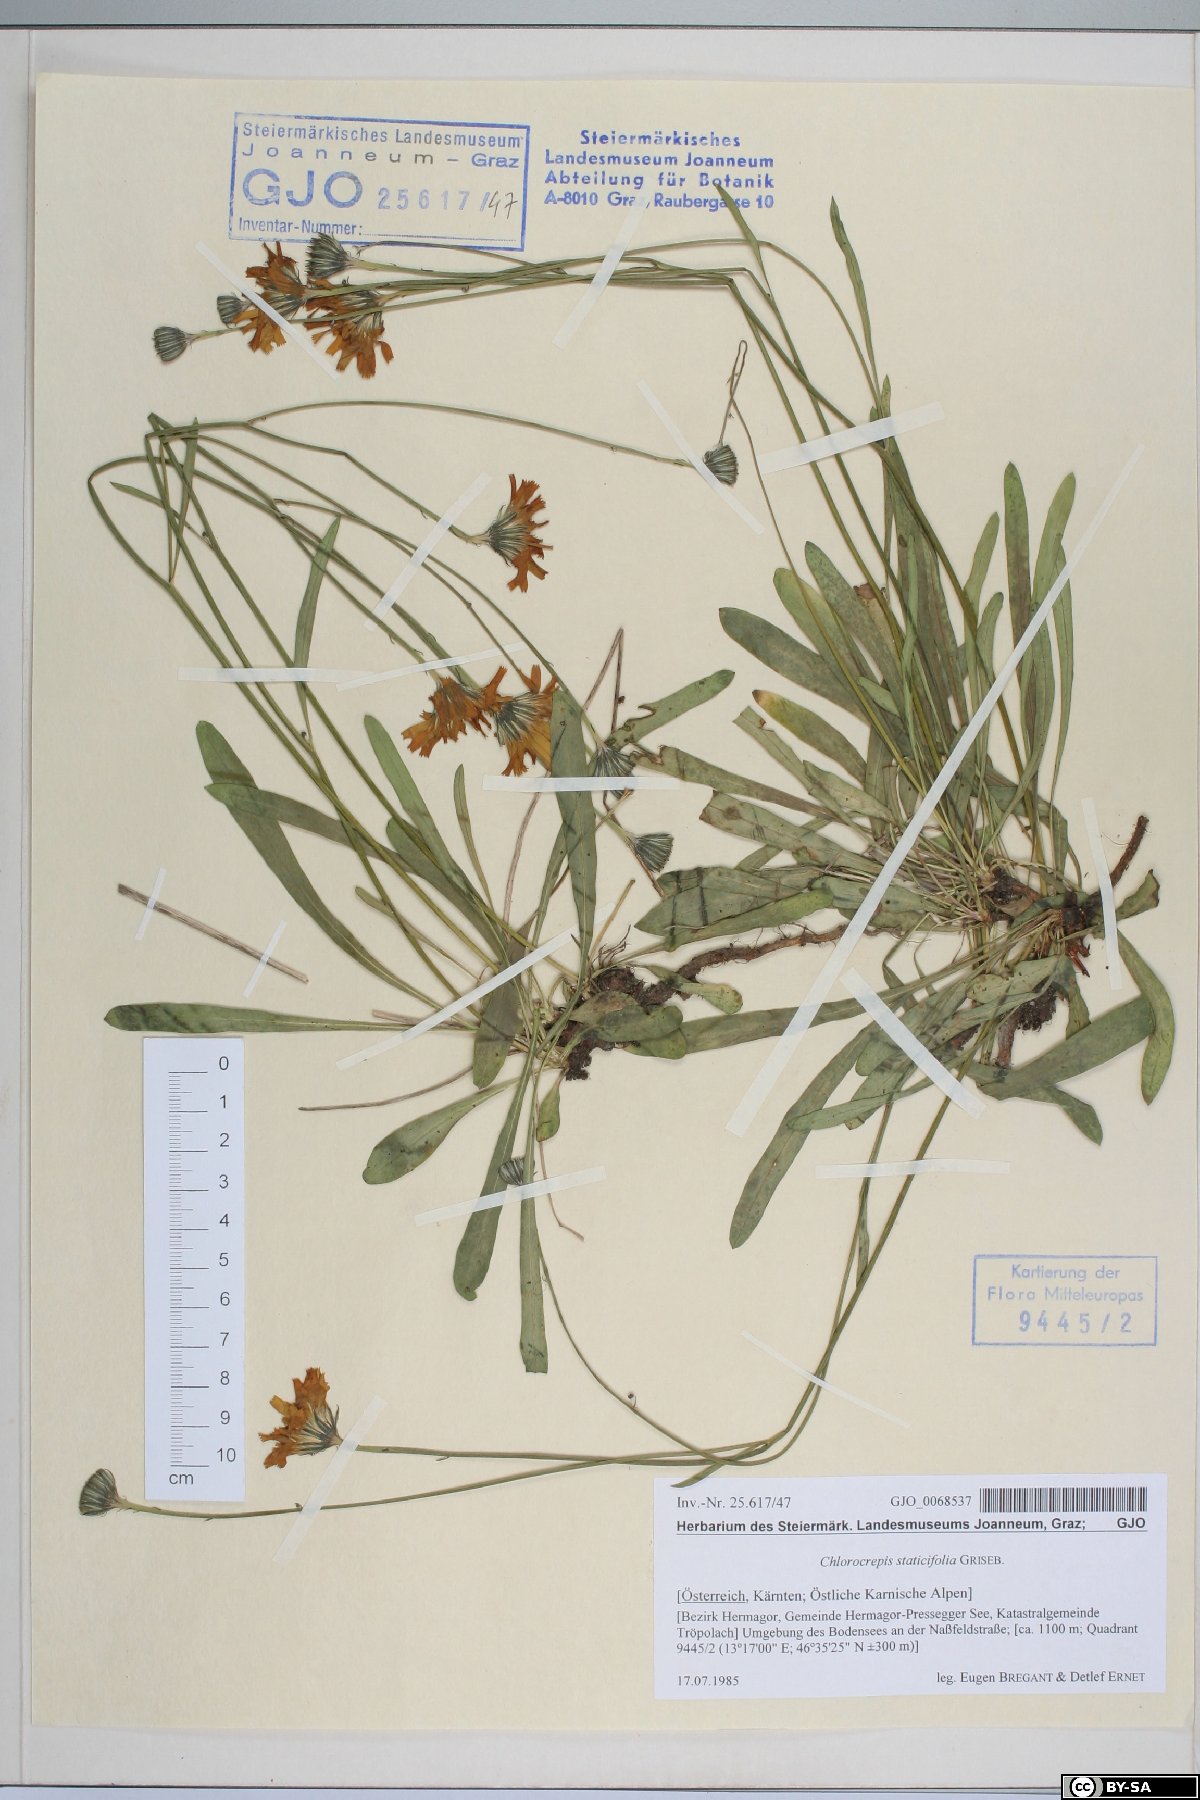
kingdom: Plantae
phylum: Tracheophyta
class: Magnoliopsida
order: Asterales
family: Asteraceae
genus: Tolpis
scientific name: Tolpis staticifolia
